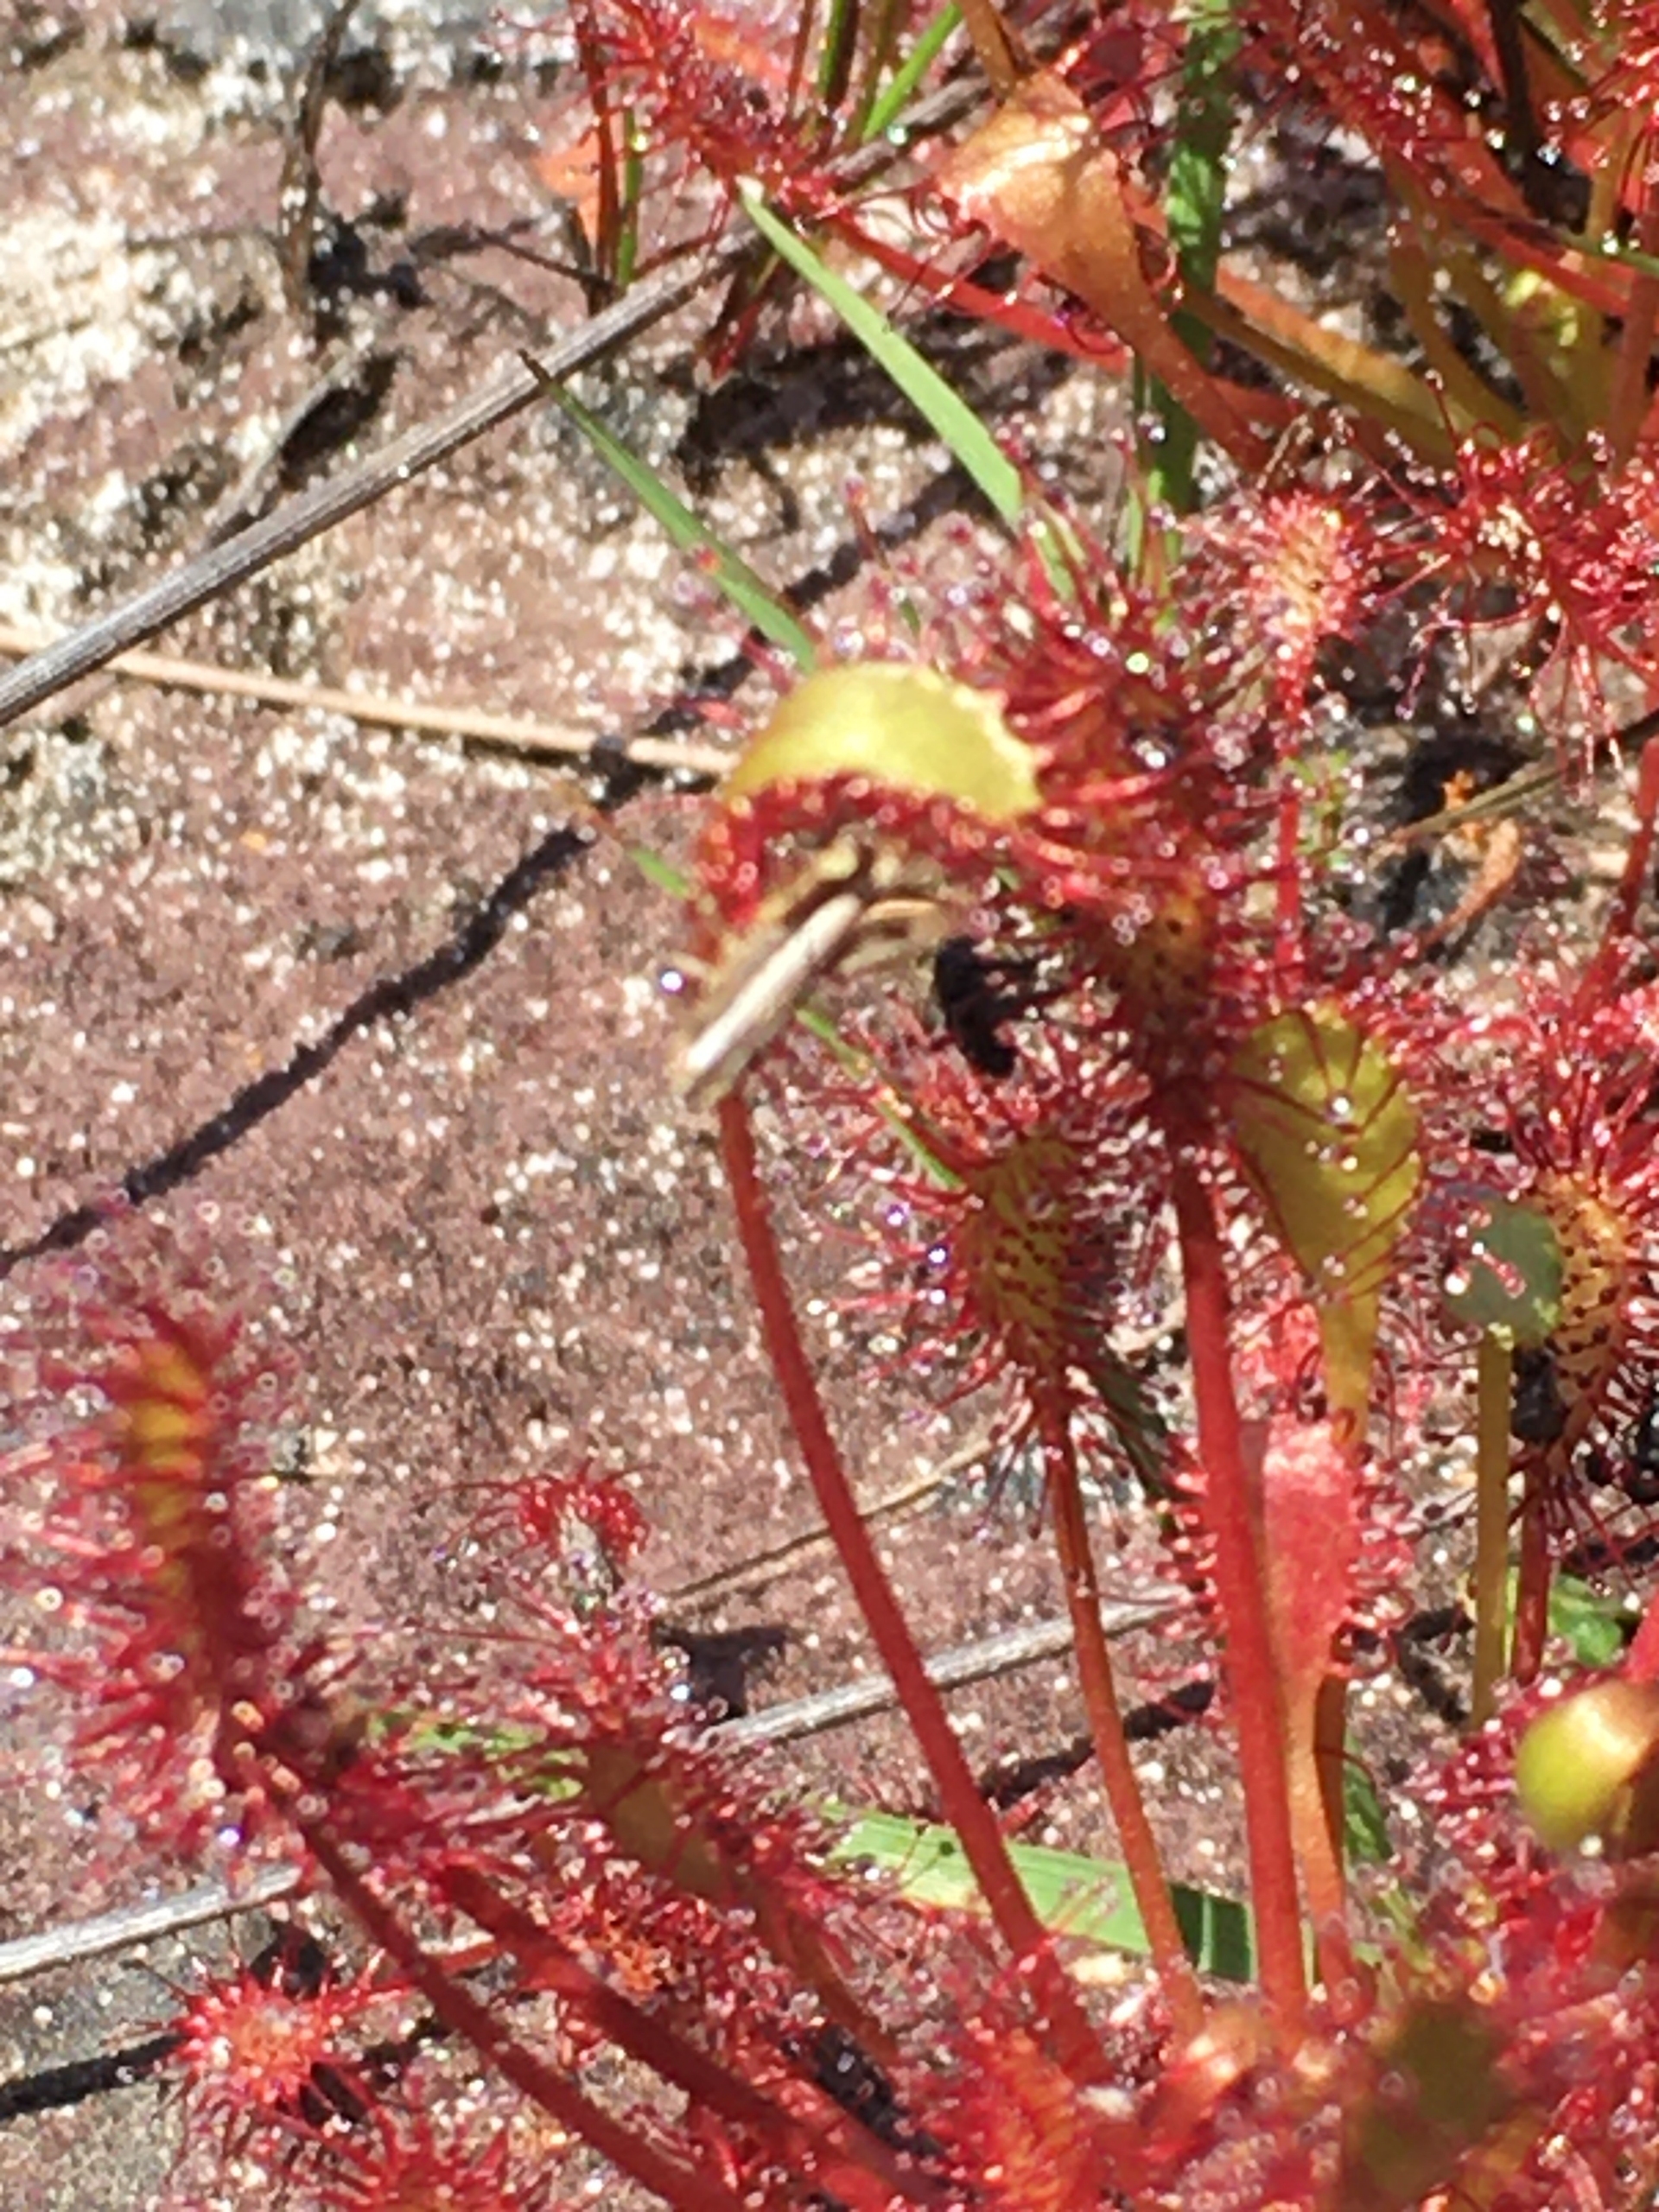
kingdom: Plantae
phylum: Tracheophyta
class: Magnoliopsida
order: Caryophyllales
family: Droseraceae
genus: Drosera
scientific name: Drosera intermedia
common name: Liden soldug
